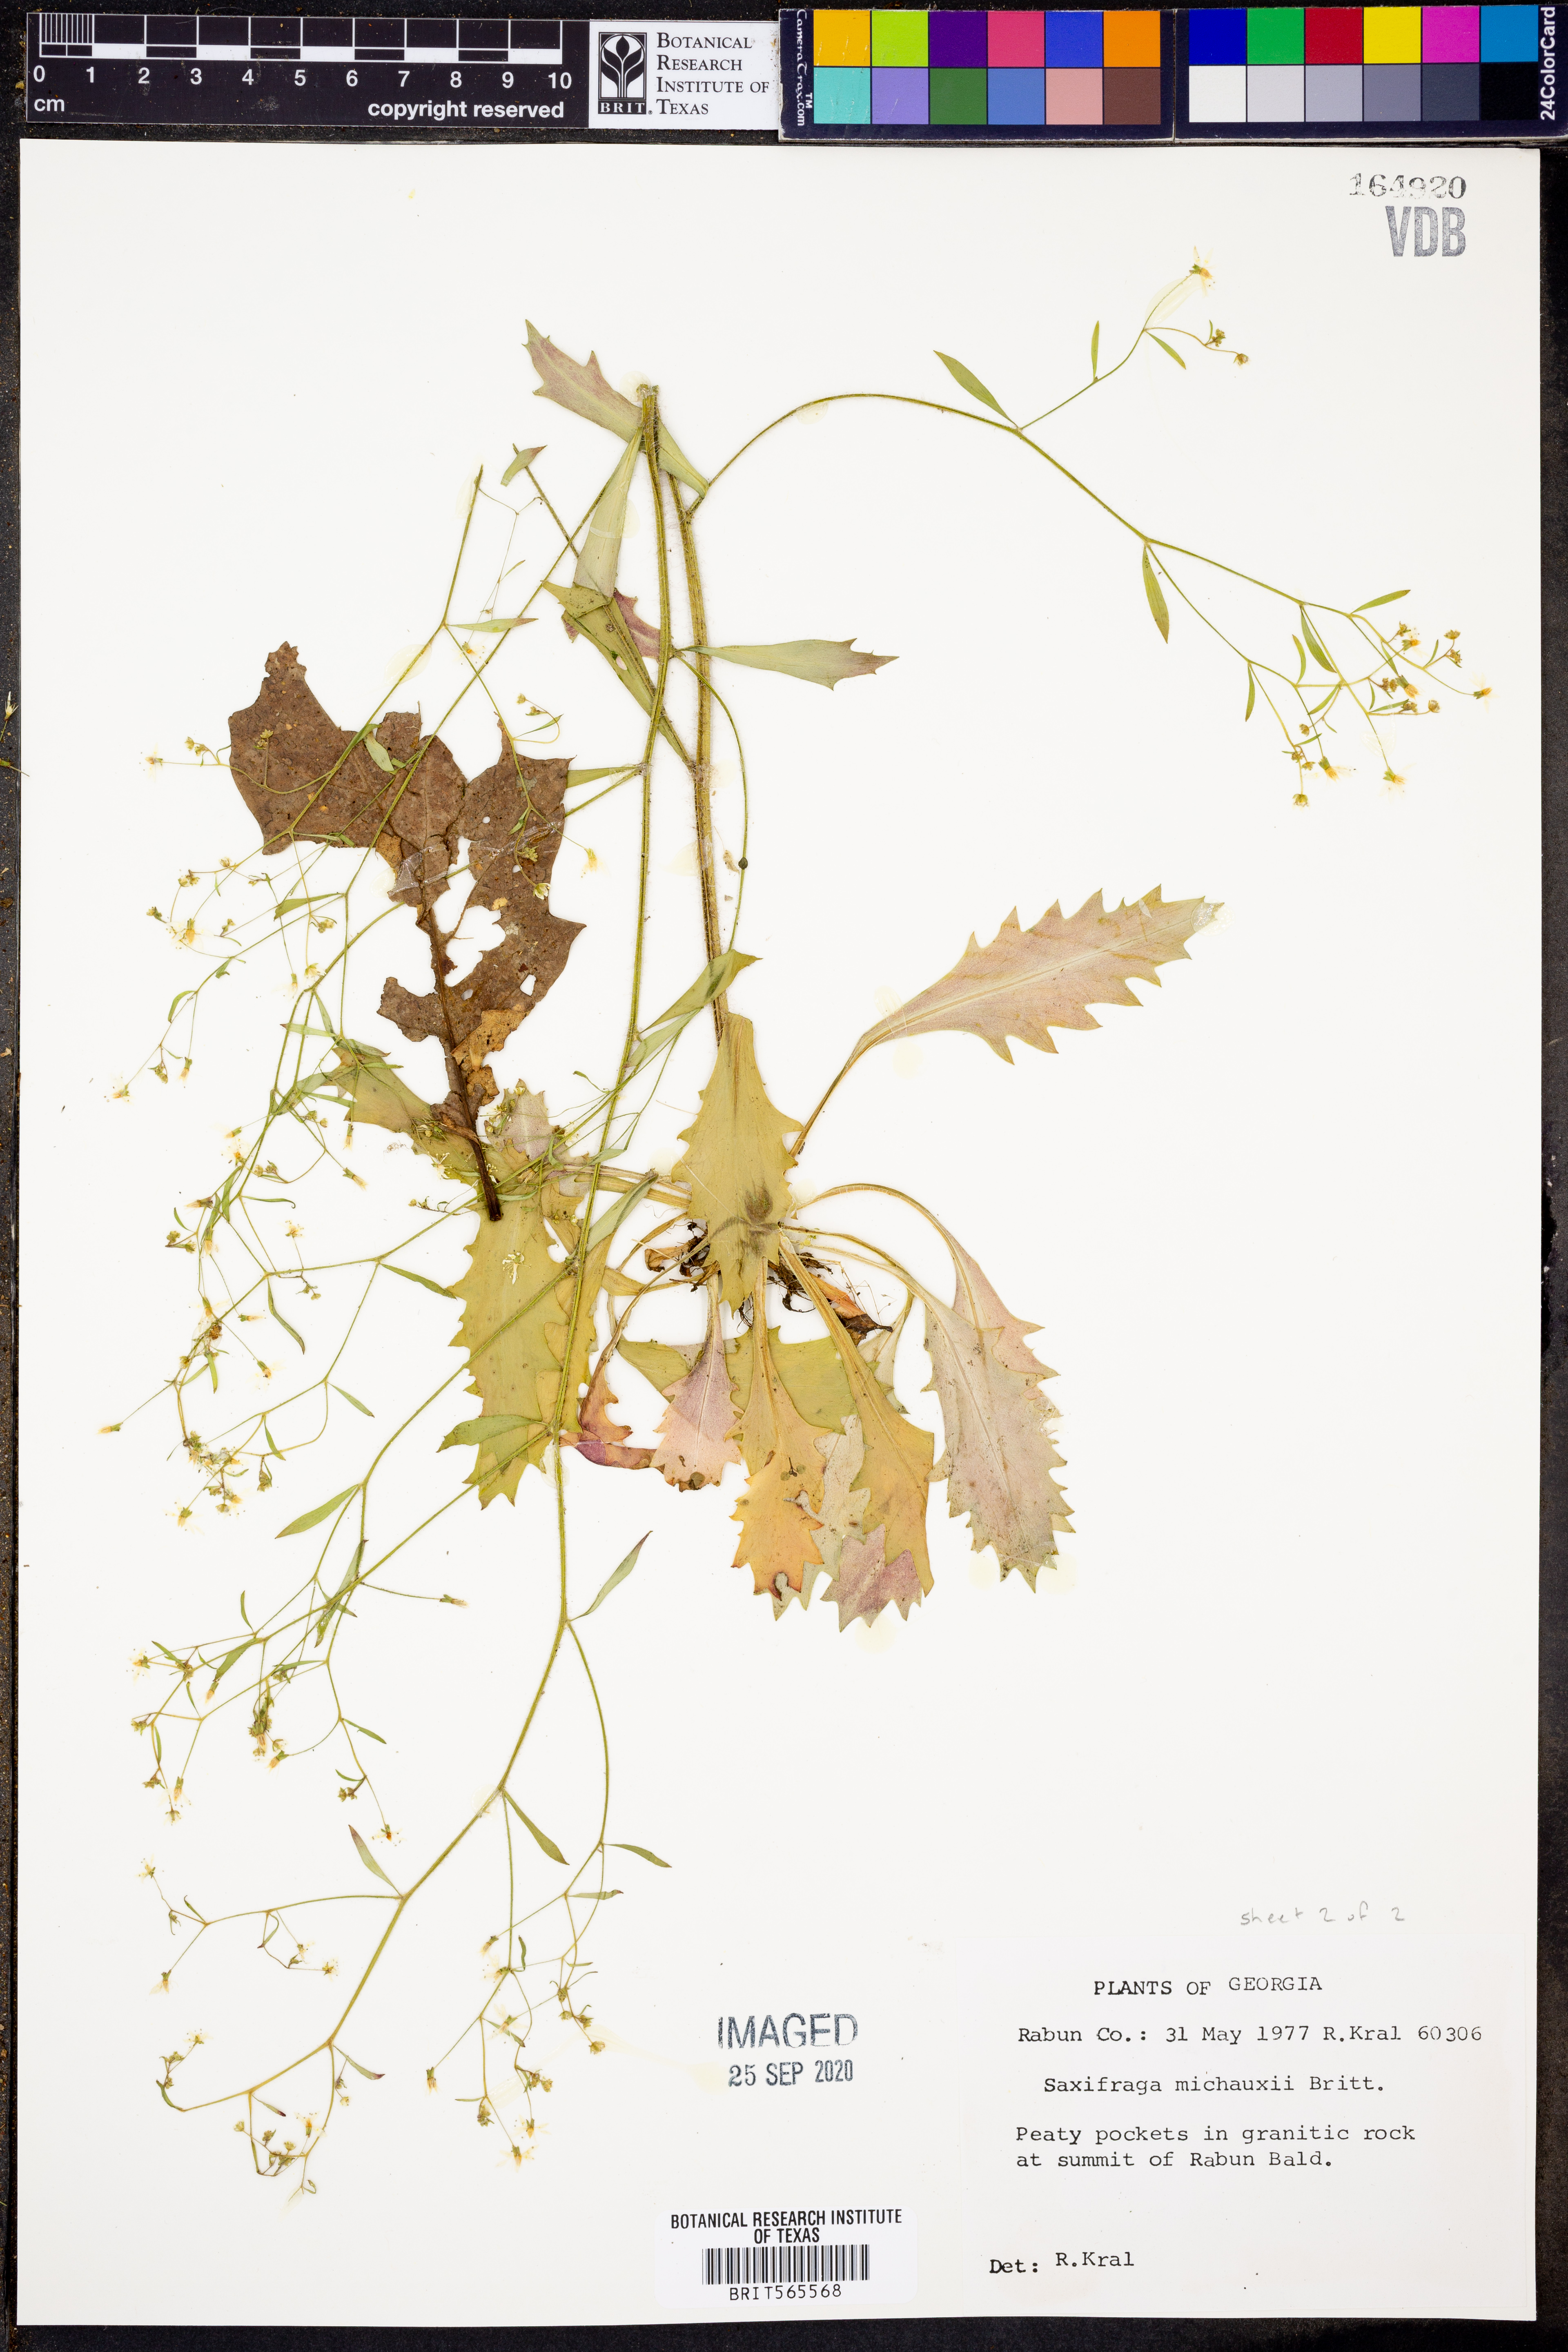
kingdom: Plantae
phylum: Tracheophyta
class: Magnoliopsida
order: Saxifragales
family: Saxifragaceae
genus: Micranthes
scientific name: Micranthes petiolaris
